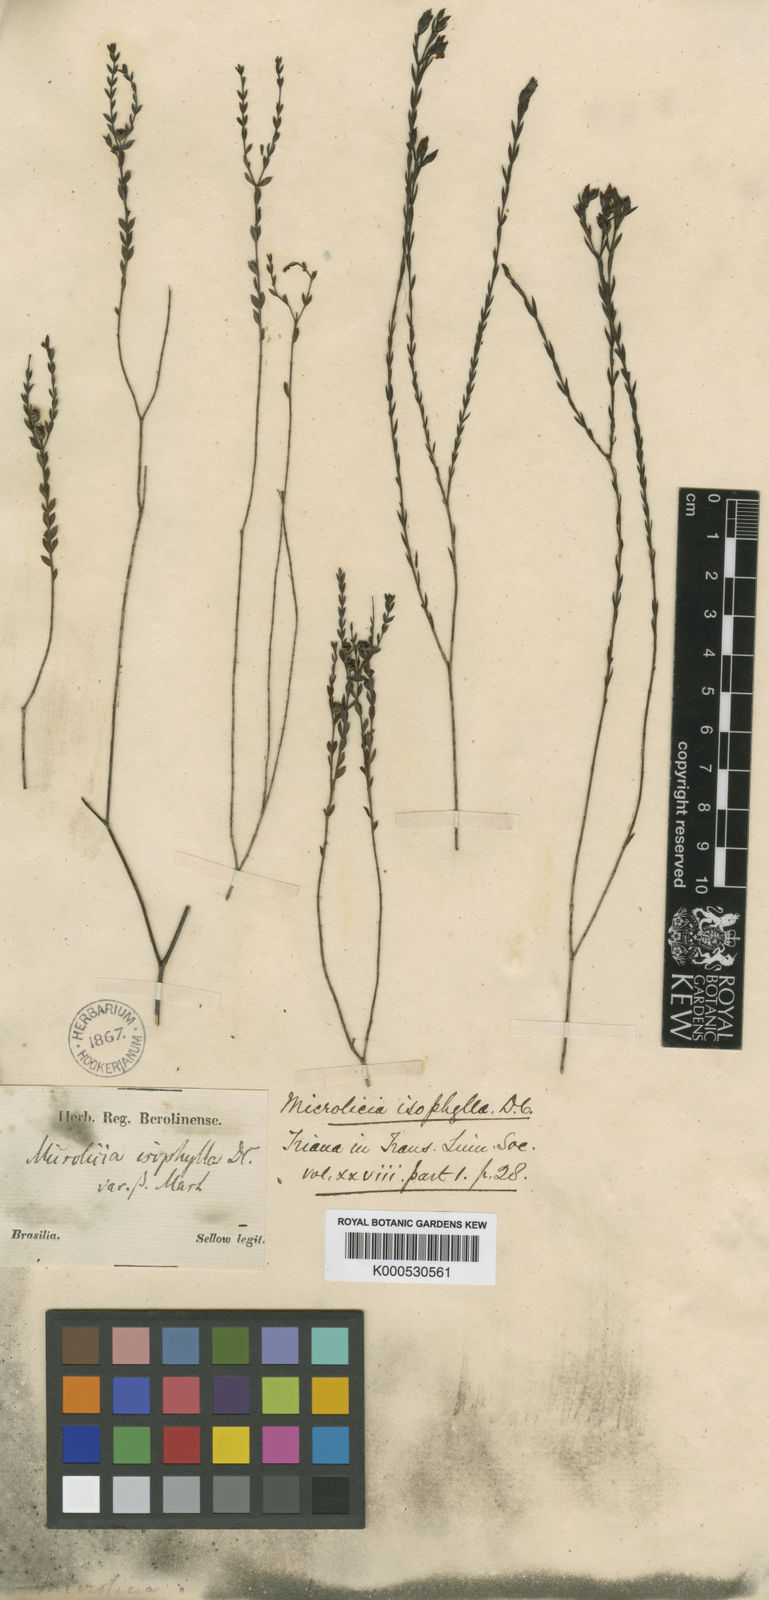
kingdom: Plantae
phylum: Tracheophyta
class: Magnoliopsida
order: Myrtales
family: Melastomataceae
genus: Microlicia
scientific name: Microlicia isophylla
